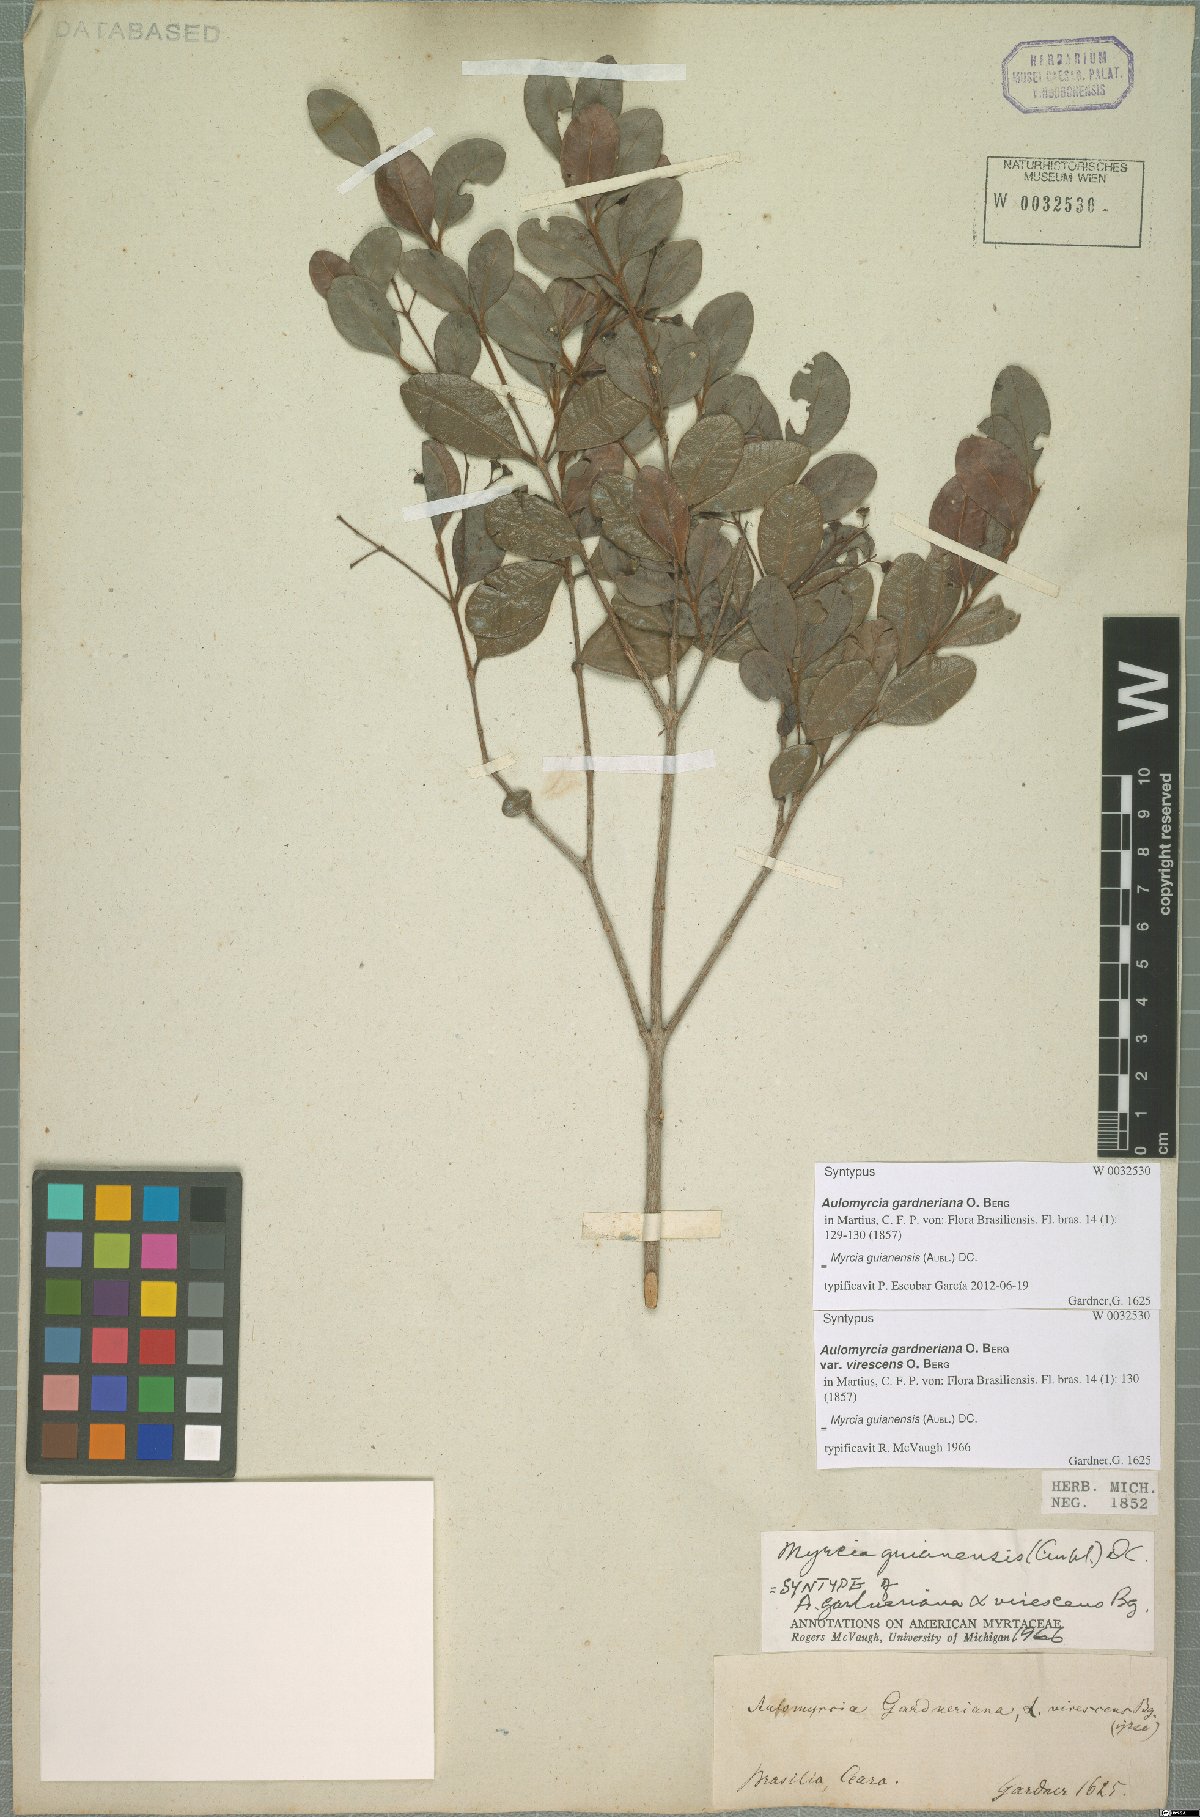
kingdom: Plantae
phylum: Tracheophyta
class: Magnoliopsida
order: Myrtales
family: Myrtaceae
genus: Myrcia
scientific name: Myrcia guianensis
